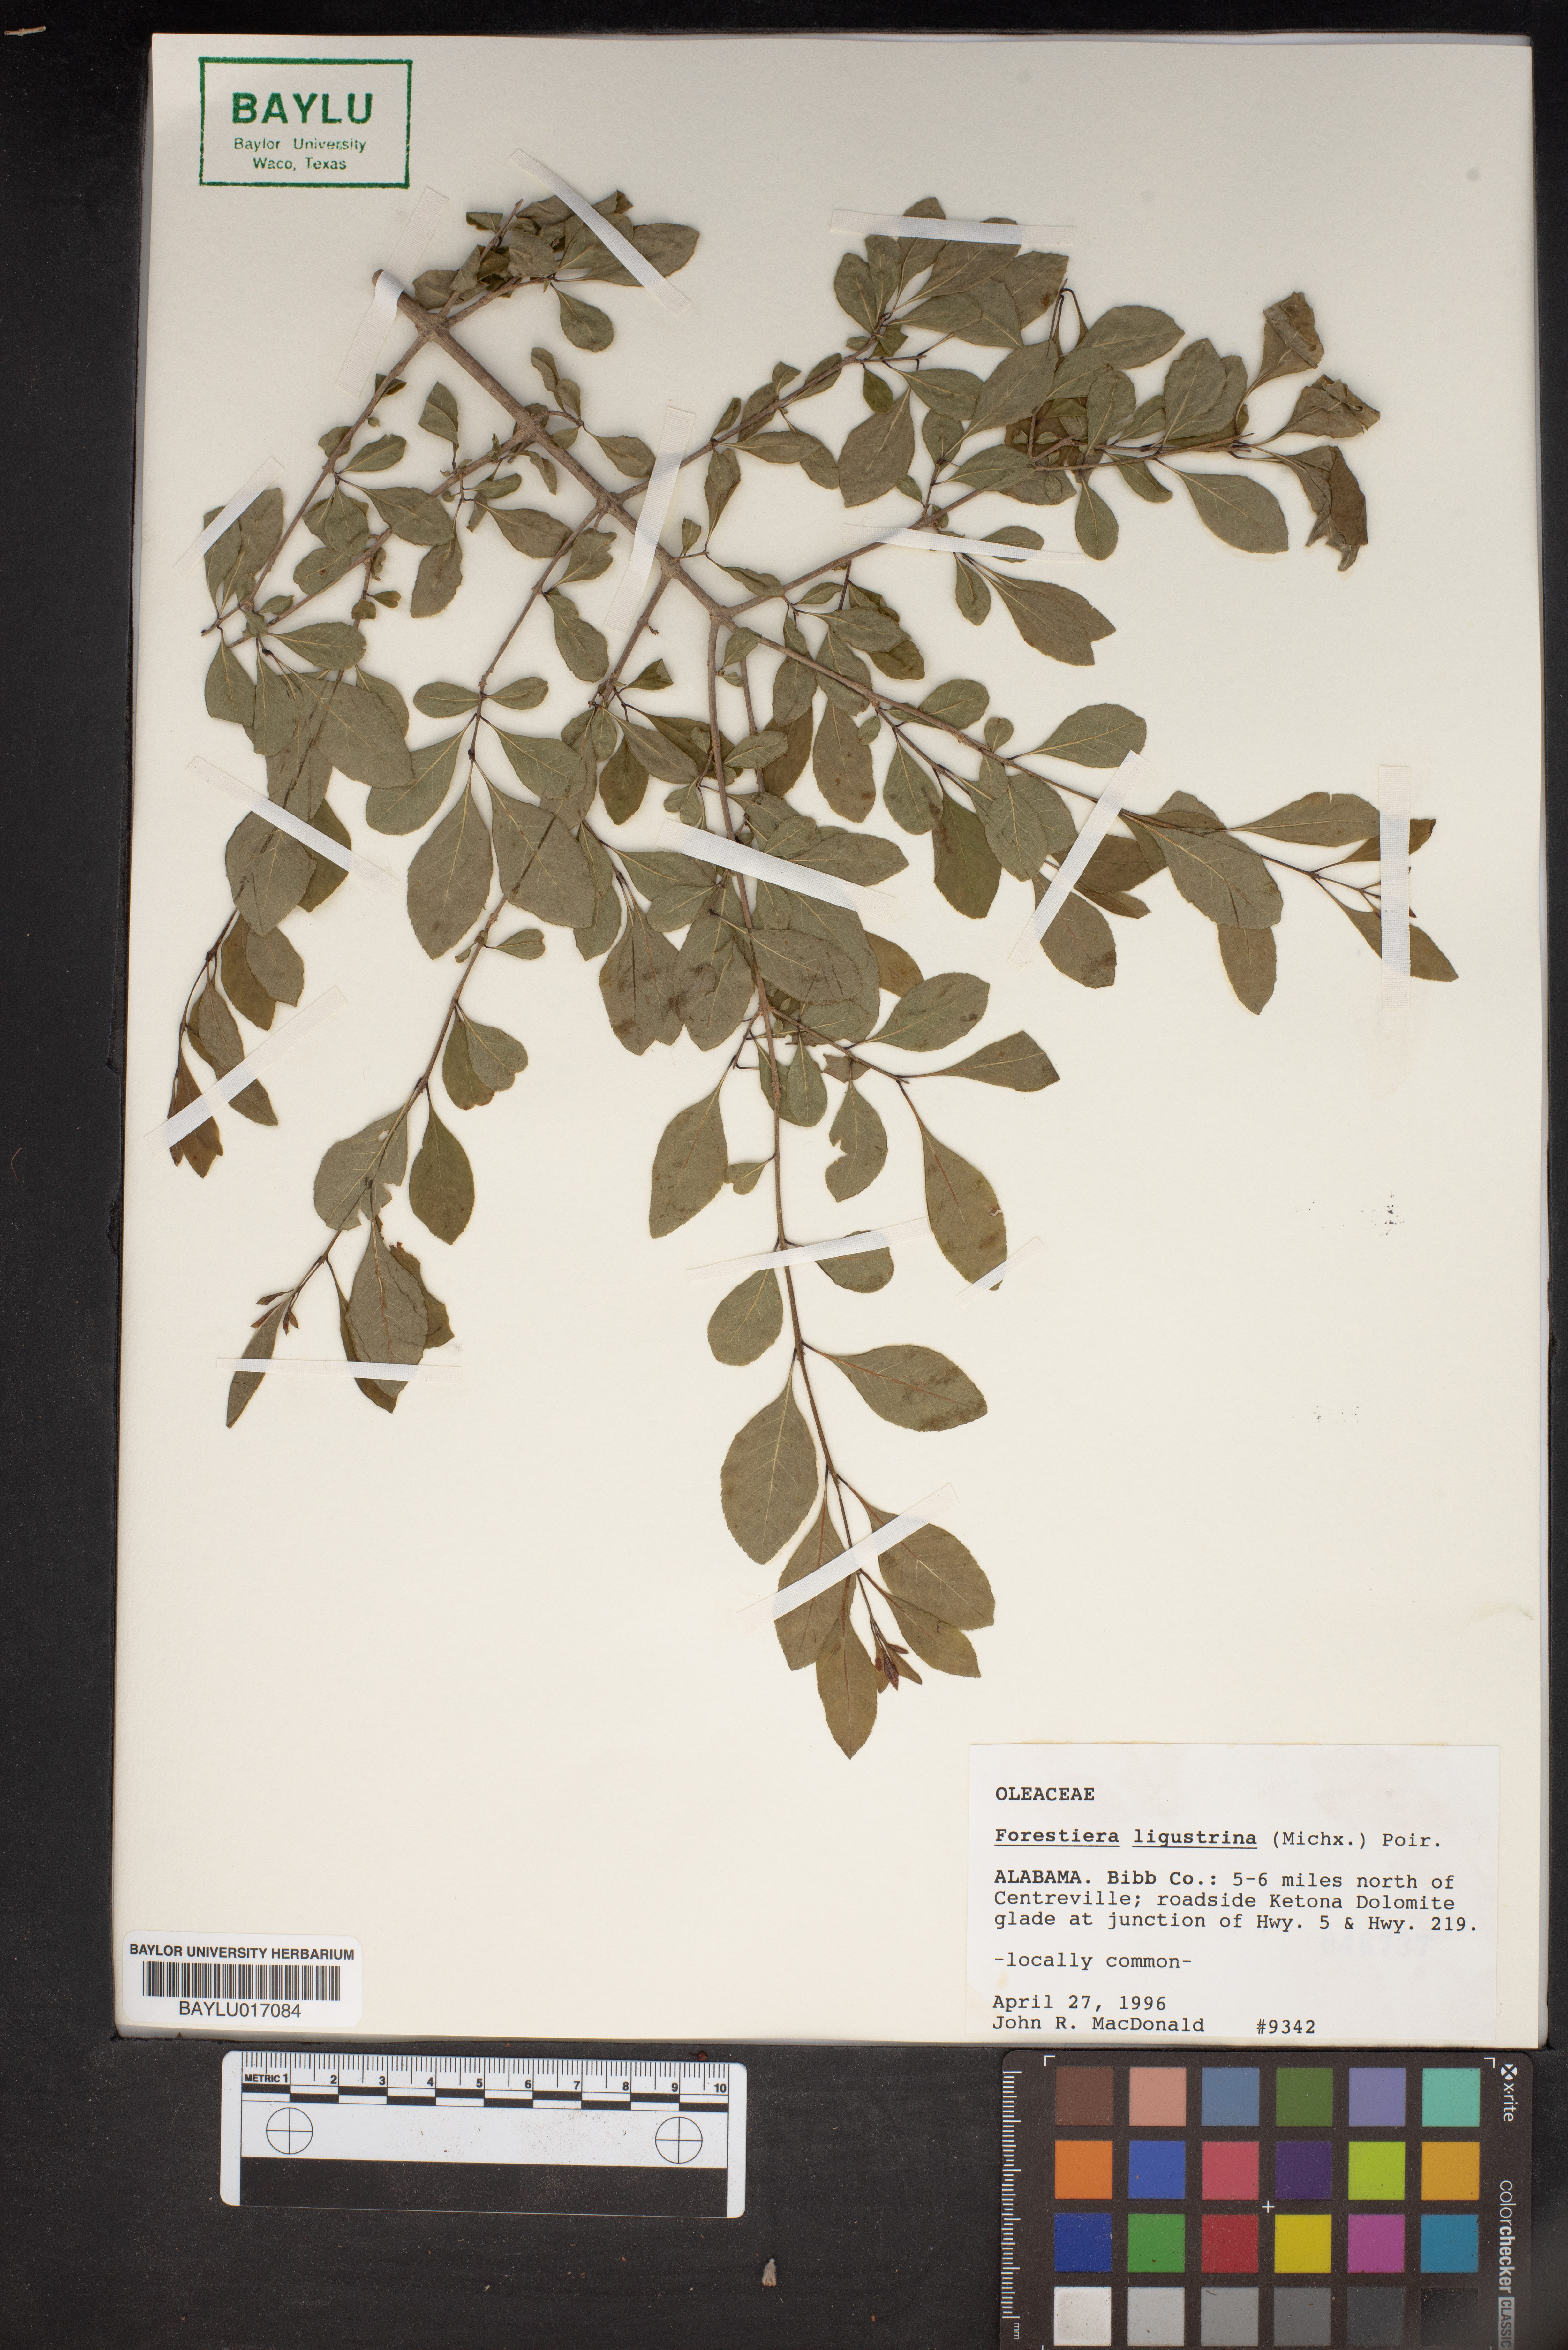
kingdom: Plantae
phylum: Tracheophyta
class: Magnoliopsida
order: Lamiales
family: Oleaceae
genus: Forestiera
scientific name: Forestiera ligustrina
